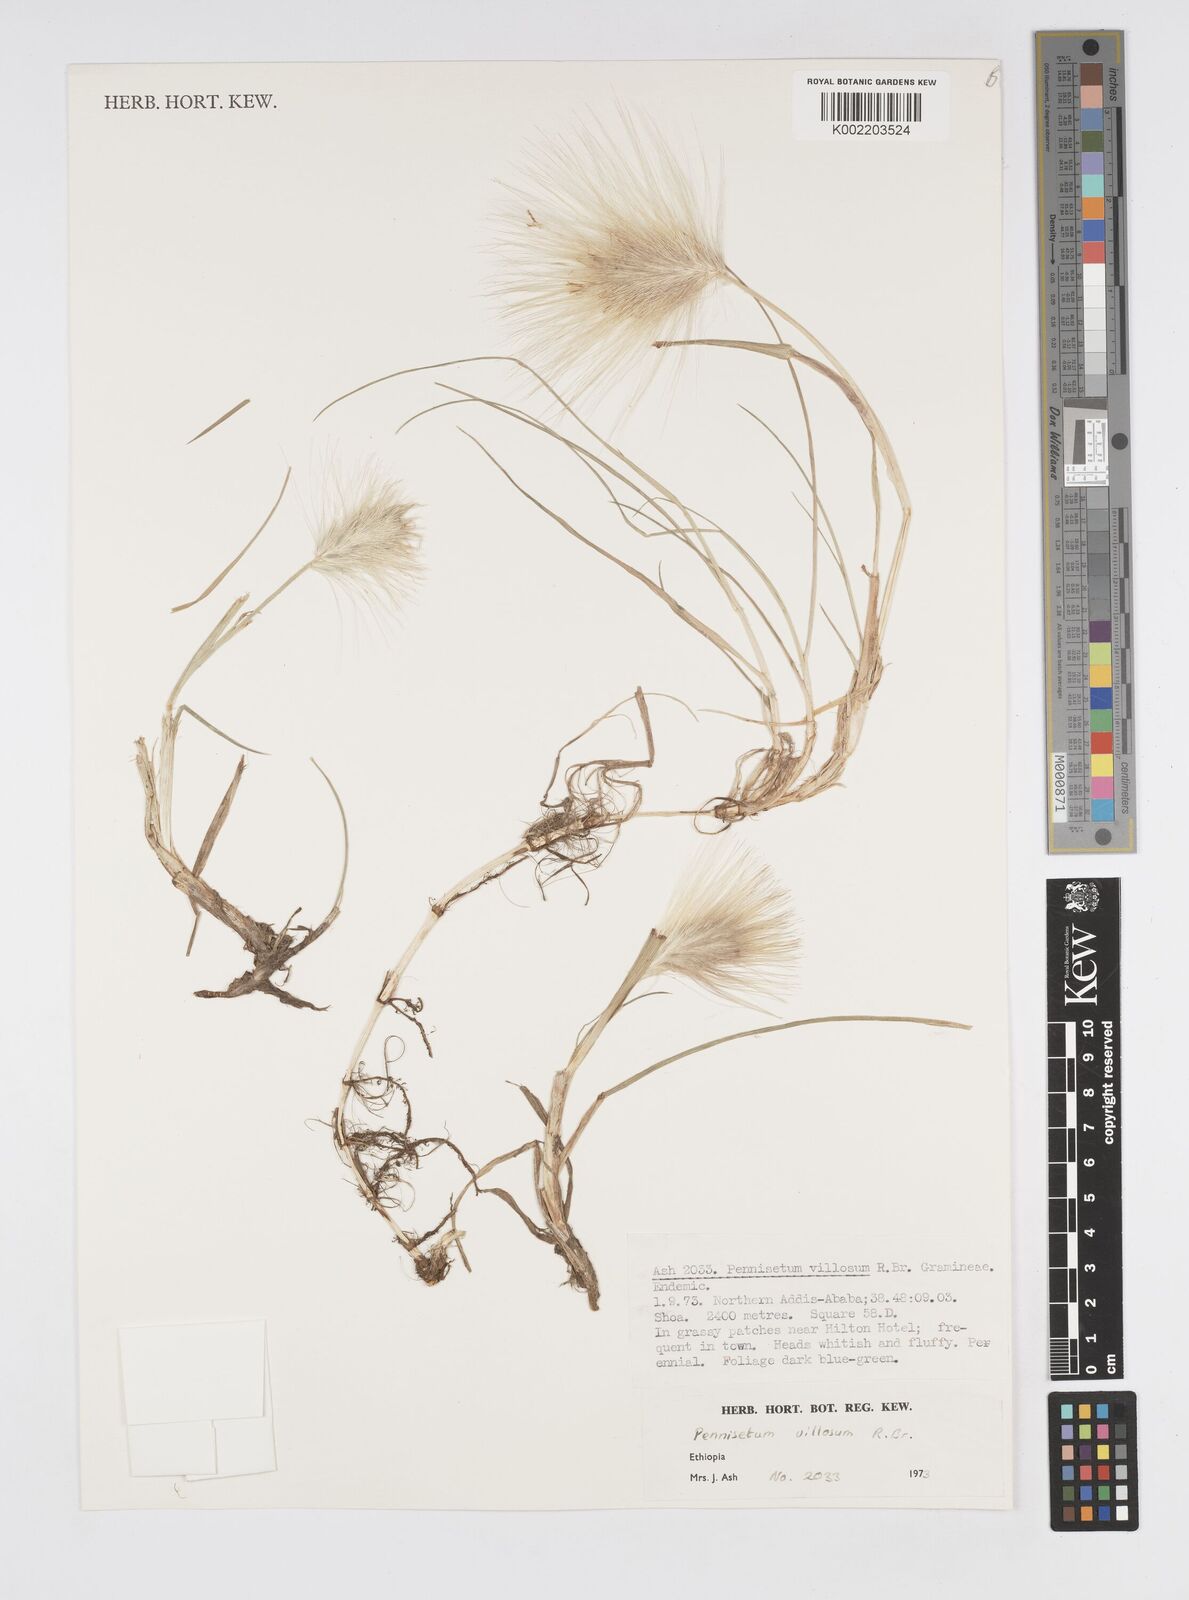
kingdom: Plantae
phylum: Tracheophyta
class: Liliopsida
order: Poales
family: Poaceae
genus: Cenchrus
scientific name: Cenchrus longisetus
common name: Feathertop
